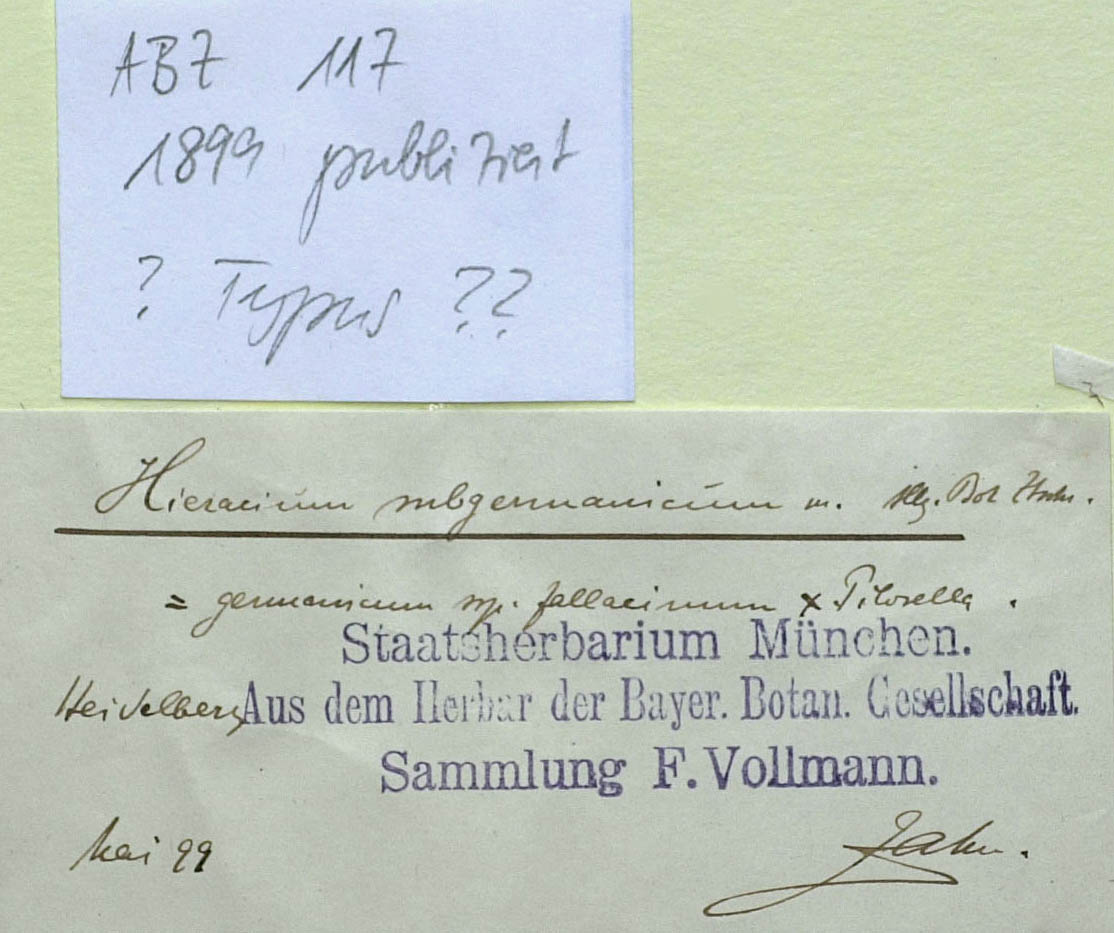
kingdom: Plantae
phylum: Tracheophyta
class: Magnoliopsida
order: Asterales
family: Asteraceae
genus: Pilosella
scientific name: Pilosella pilosellina
